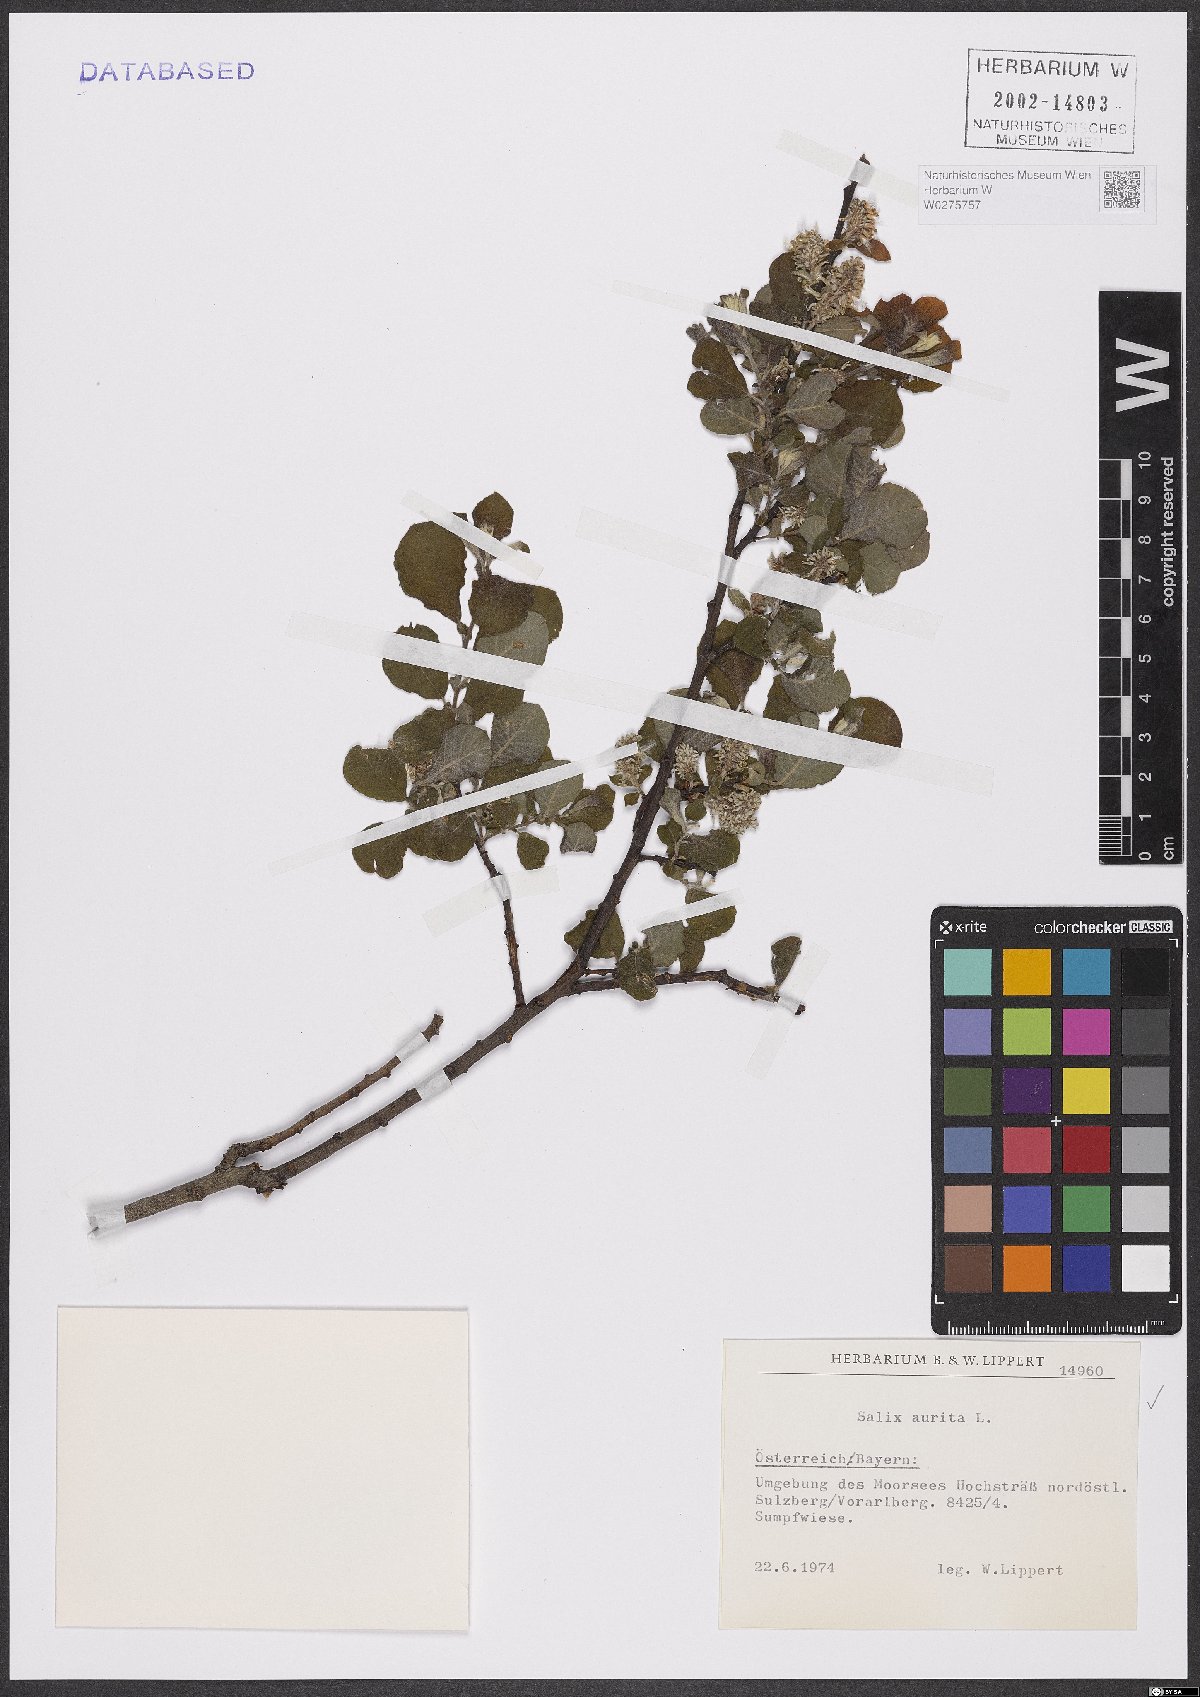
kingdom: Plantae
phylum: Tracheophyta
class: Magnoliopsida
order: Malpighiales
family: Salicaceae
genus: Salix
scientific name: Salix aurita
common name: Eared willow
